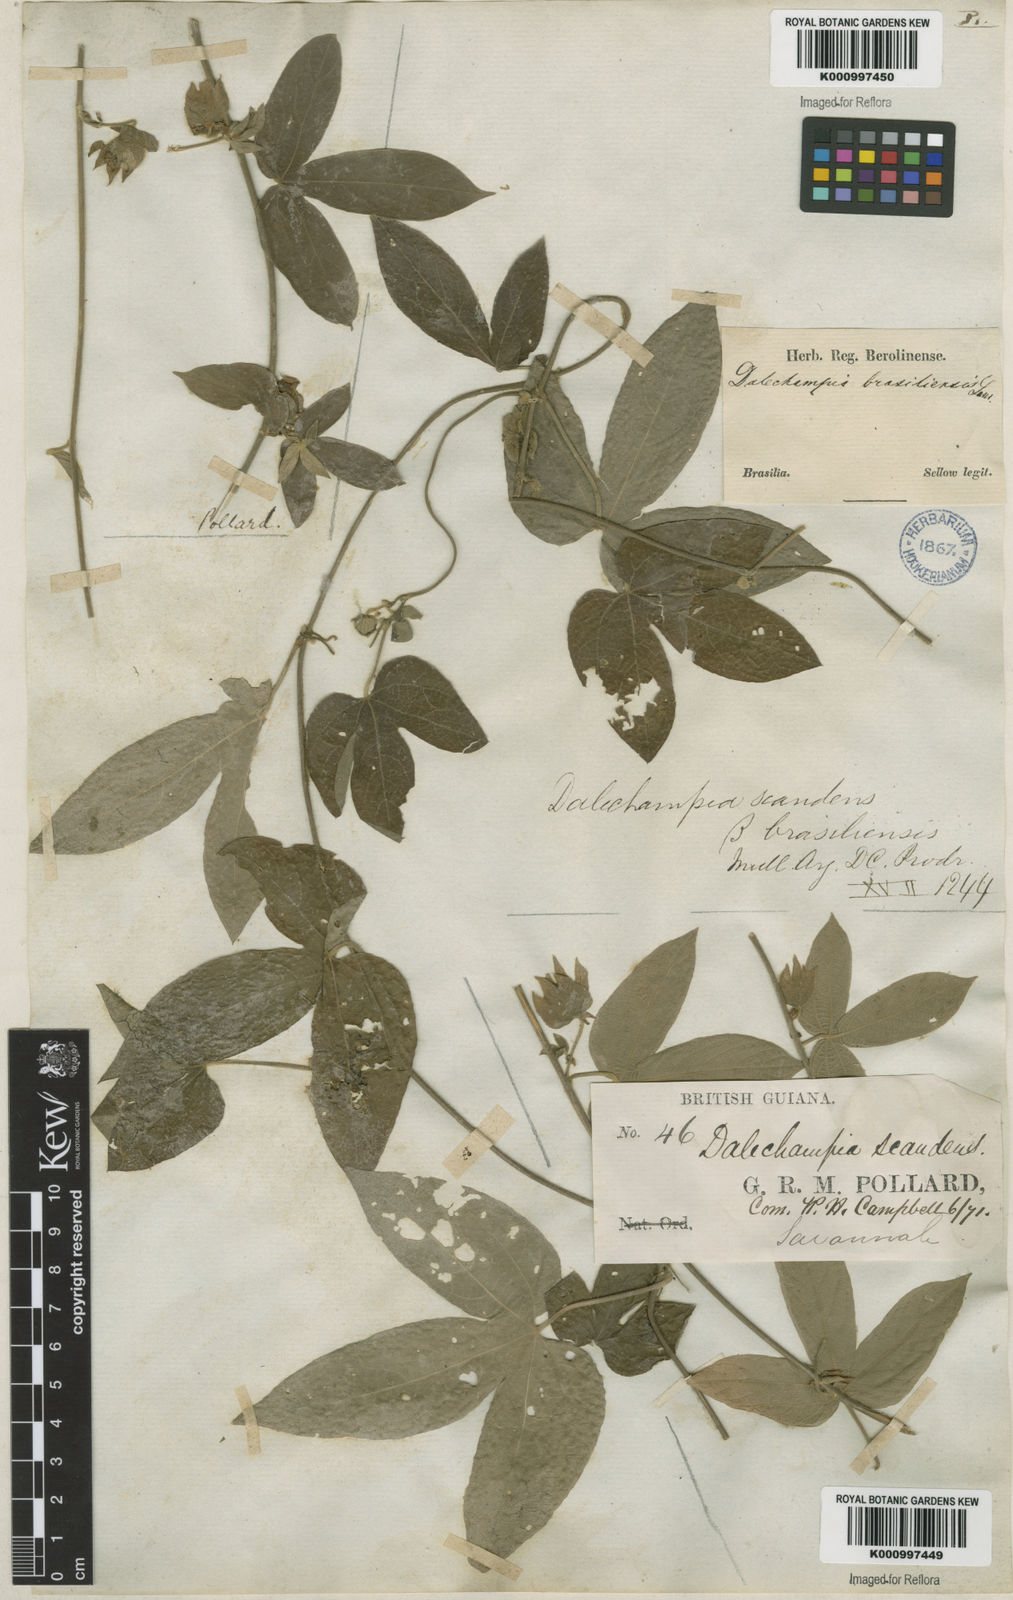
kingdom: Plantae
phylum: Tracheophyta
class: Magnoliopsida
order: Malpighiales
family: Euphorbiaceae
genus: Dalechampia
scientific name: Dalechampia scandens
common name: Spurgecreeper
